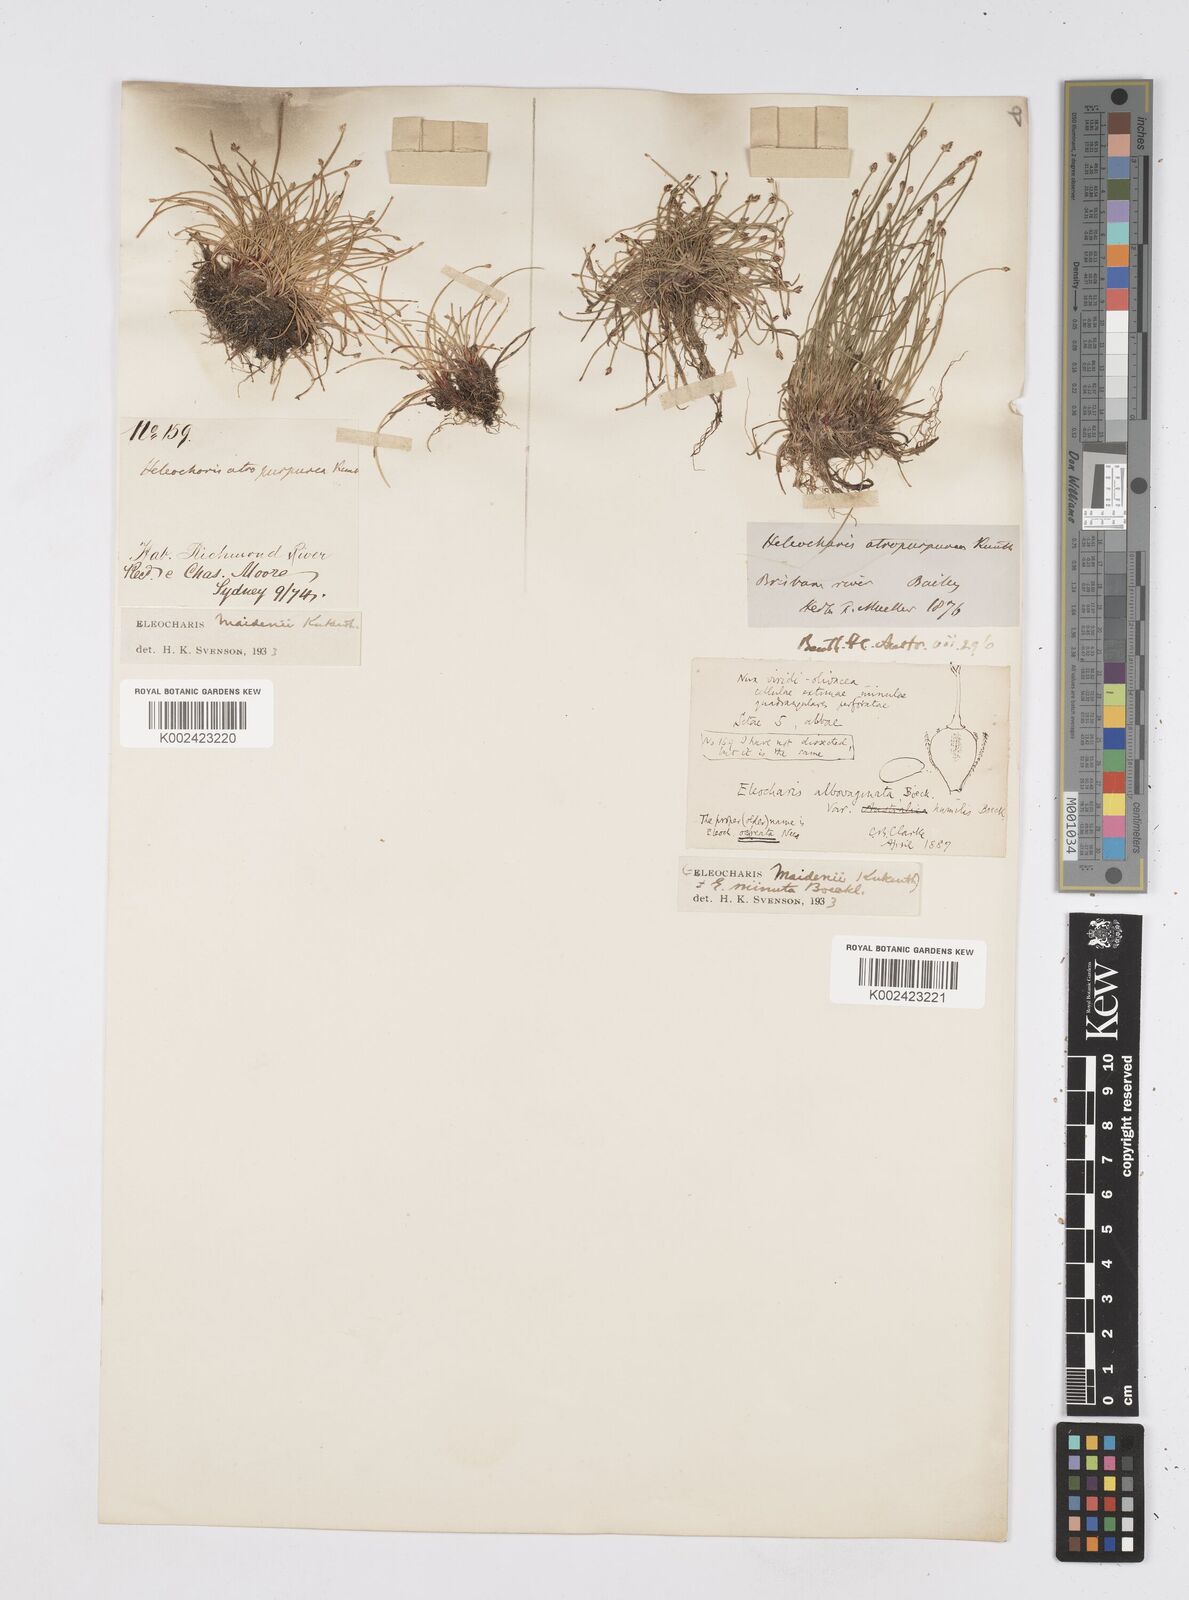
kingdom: Plantae
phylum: Tracheophyta
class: Liliopsida
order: Poales
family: Cyperaceae
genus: Eleocharis
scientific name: Eleocharis minuta
